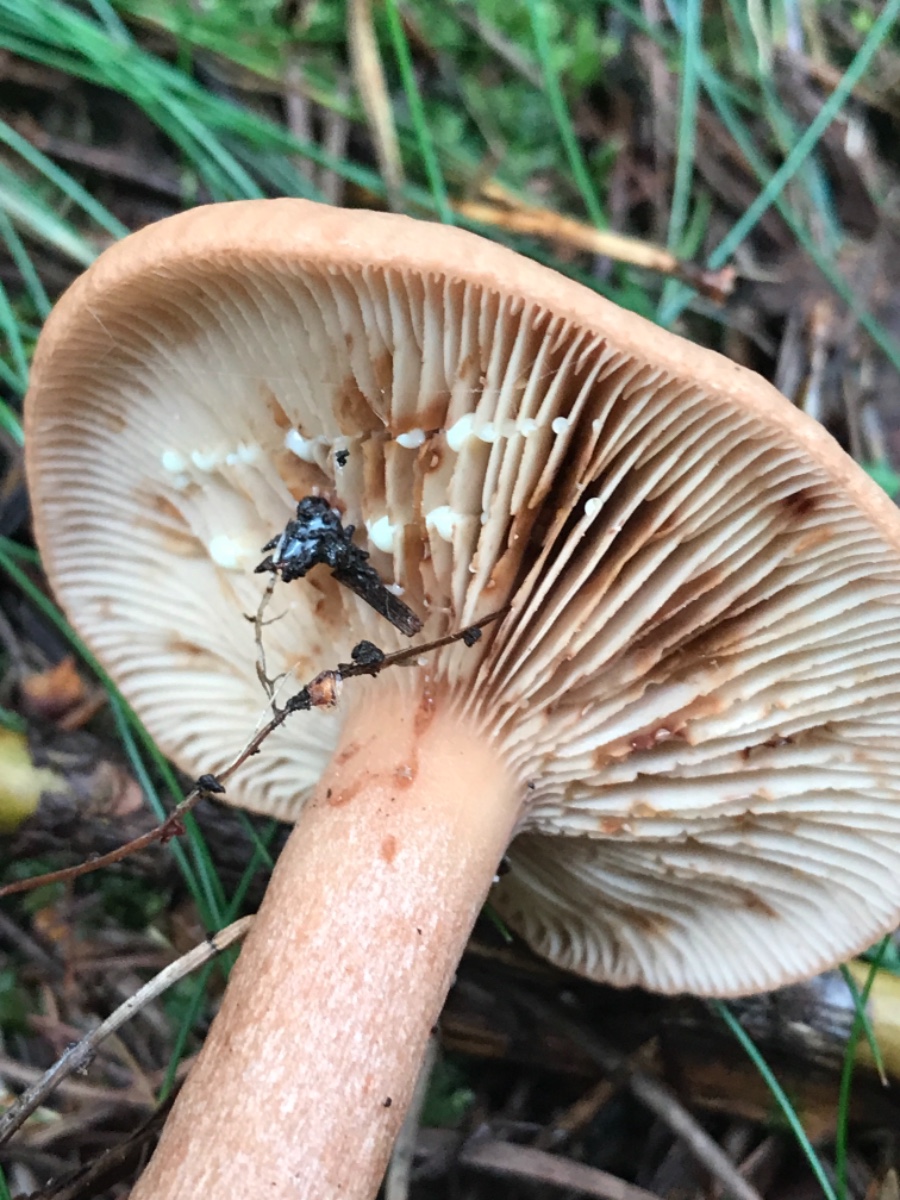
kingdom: Fungi
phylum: Basidiomycota
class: Agaricomycetes
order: Russulales
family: Russulaceae
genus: Lactarius
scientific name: Lactarius quietus
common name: ege-mælkehat
